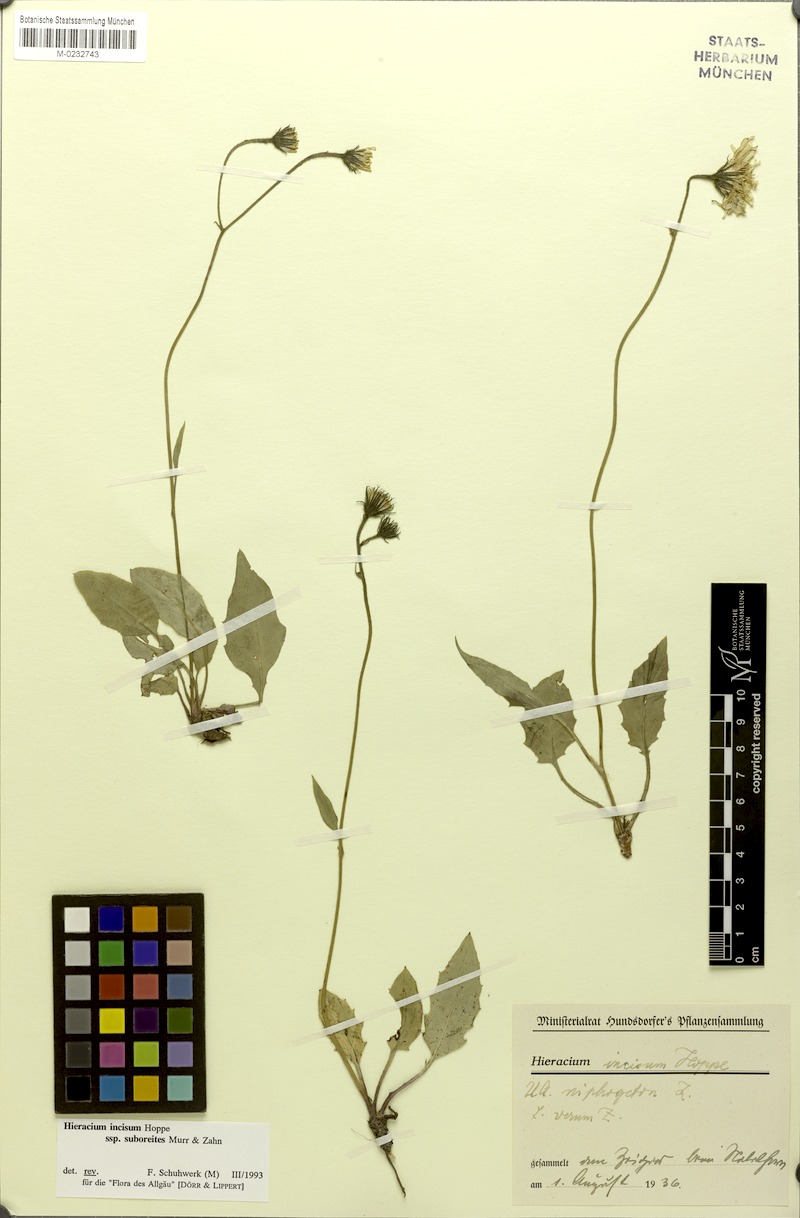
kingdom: Plantae
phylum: Tracheophyta
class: Magnoliopsida
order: Asterales
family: Asteraceae
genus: Hieracium
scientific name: Hieracium pallescens
